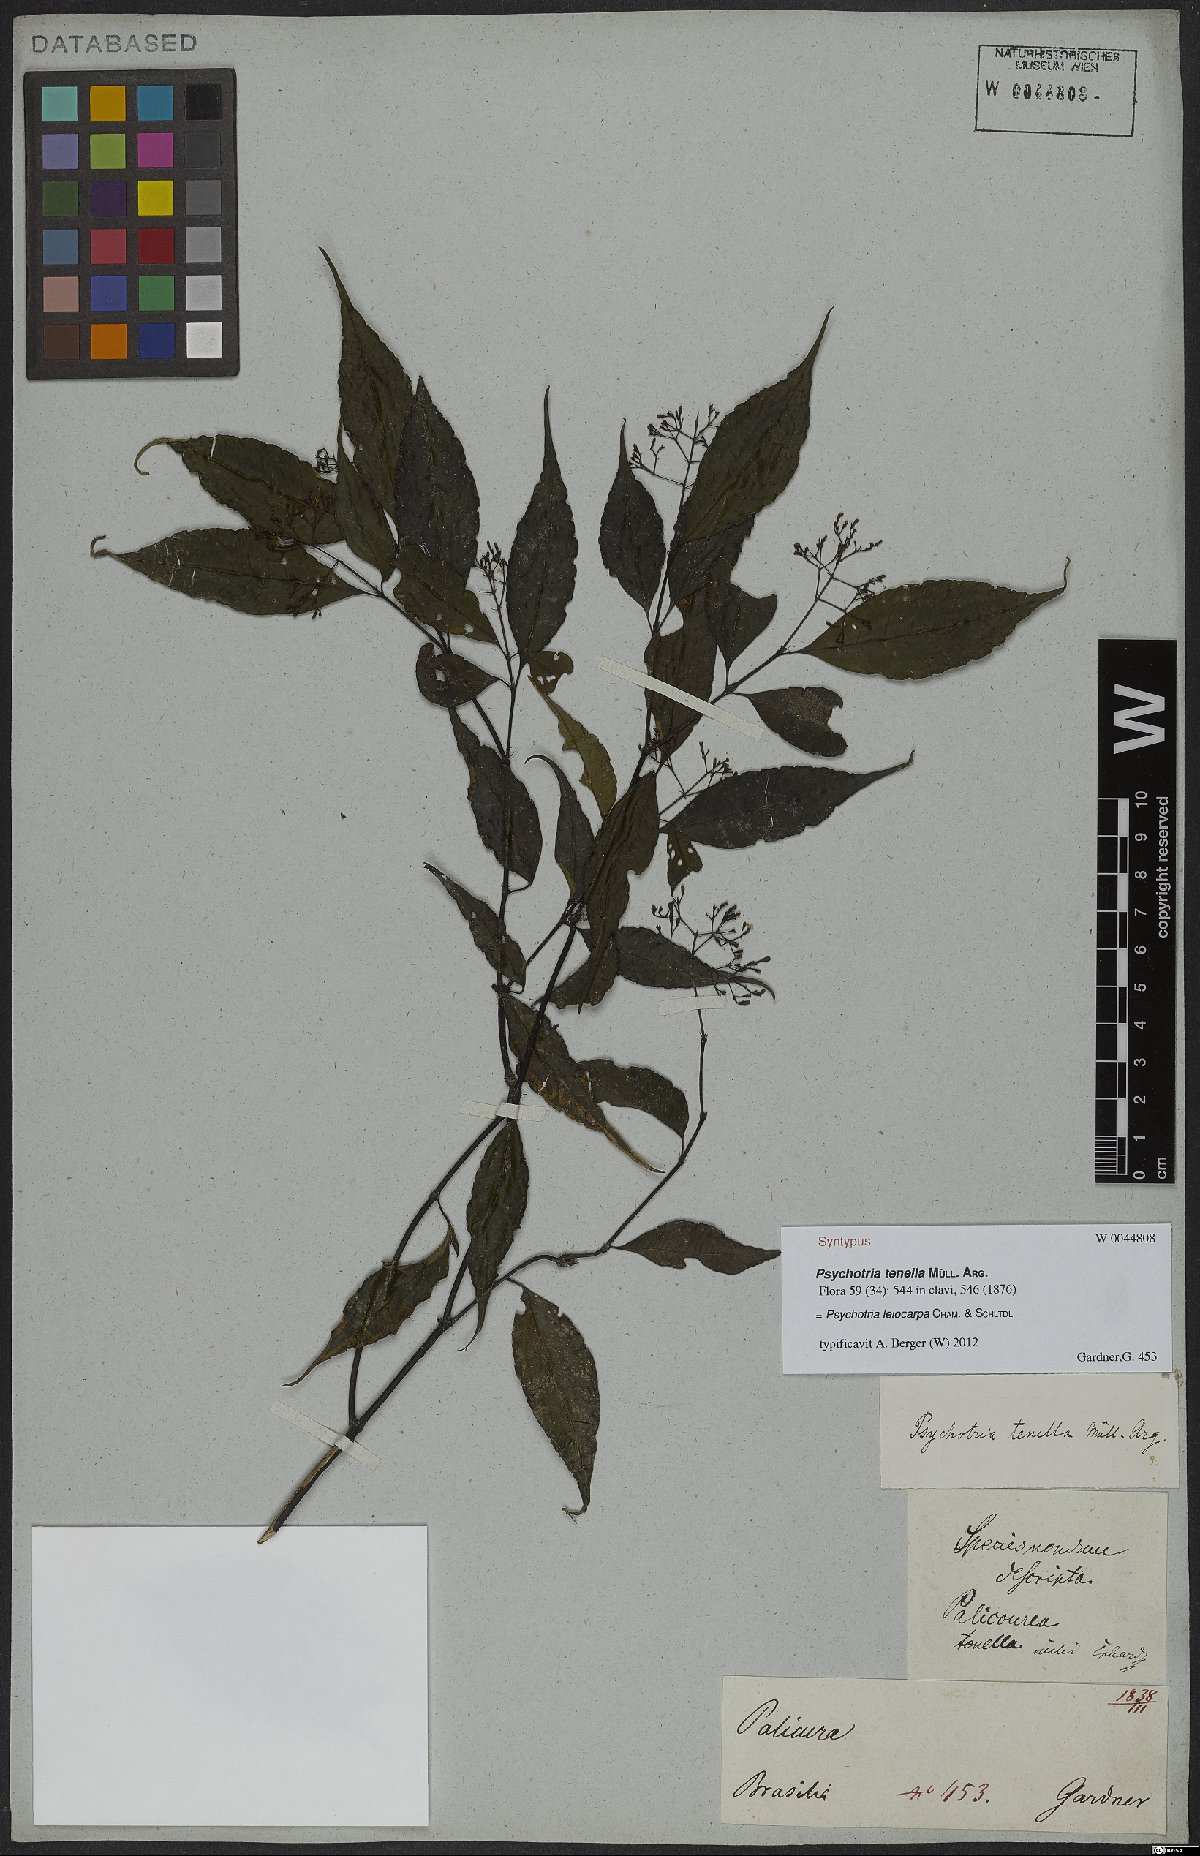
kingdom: Plantae
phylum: Tracheophyta
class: Magnoliopsida
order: Gentianales
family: Rubiaceae
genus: Psychotria
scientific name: Psychotria leiocarpa
